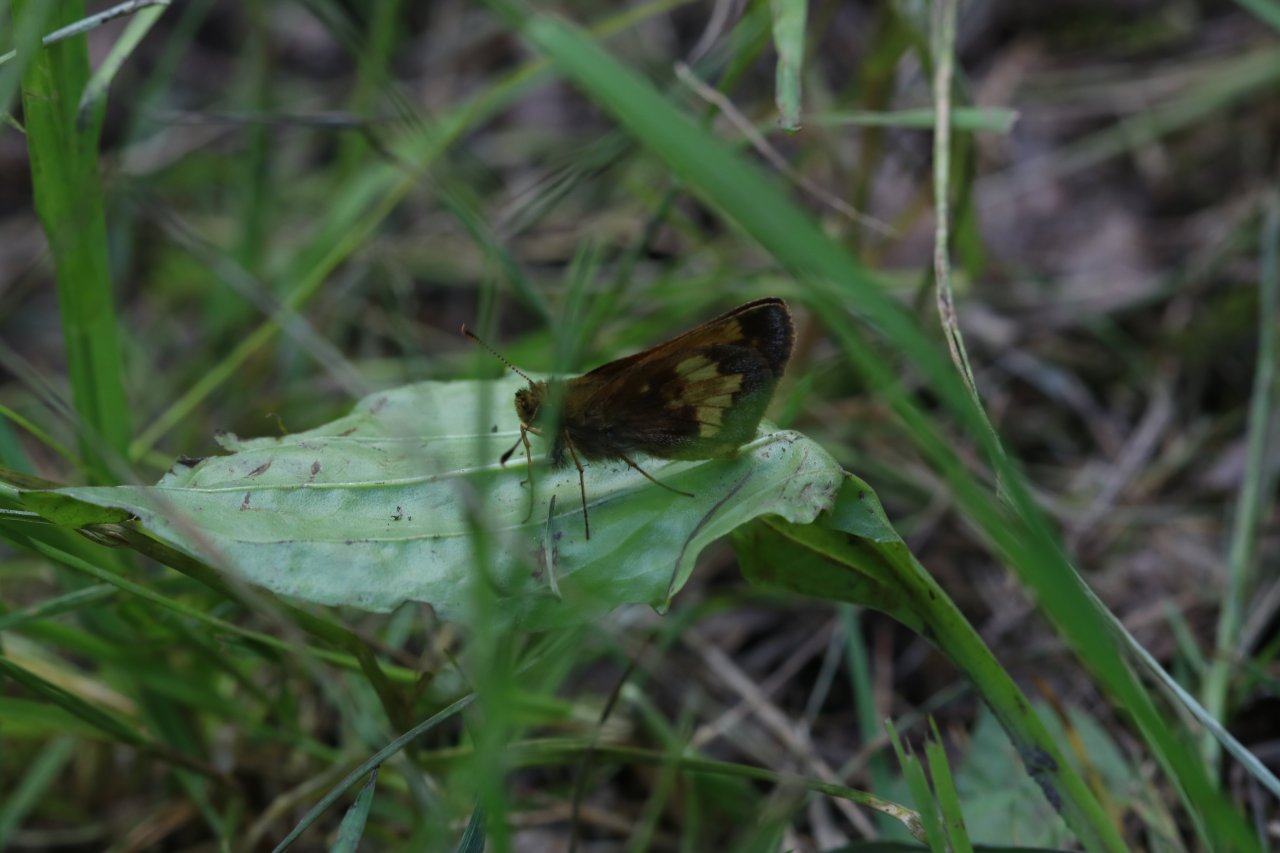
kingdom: Animalia
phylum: Arthropoda
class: Insecta
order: Lepidoptera
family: Hesperiidae
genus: Lon
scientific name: Lon hobomok
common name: Hobomok Skipper
